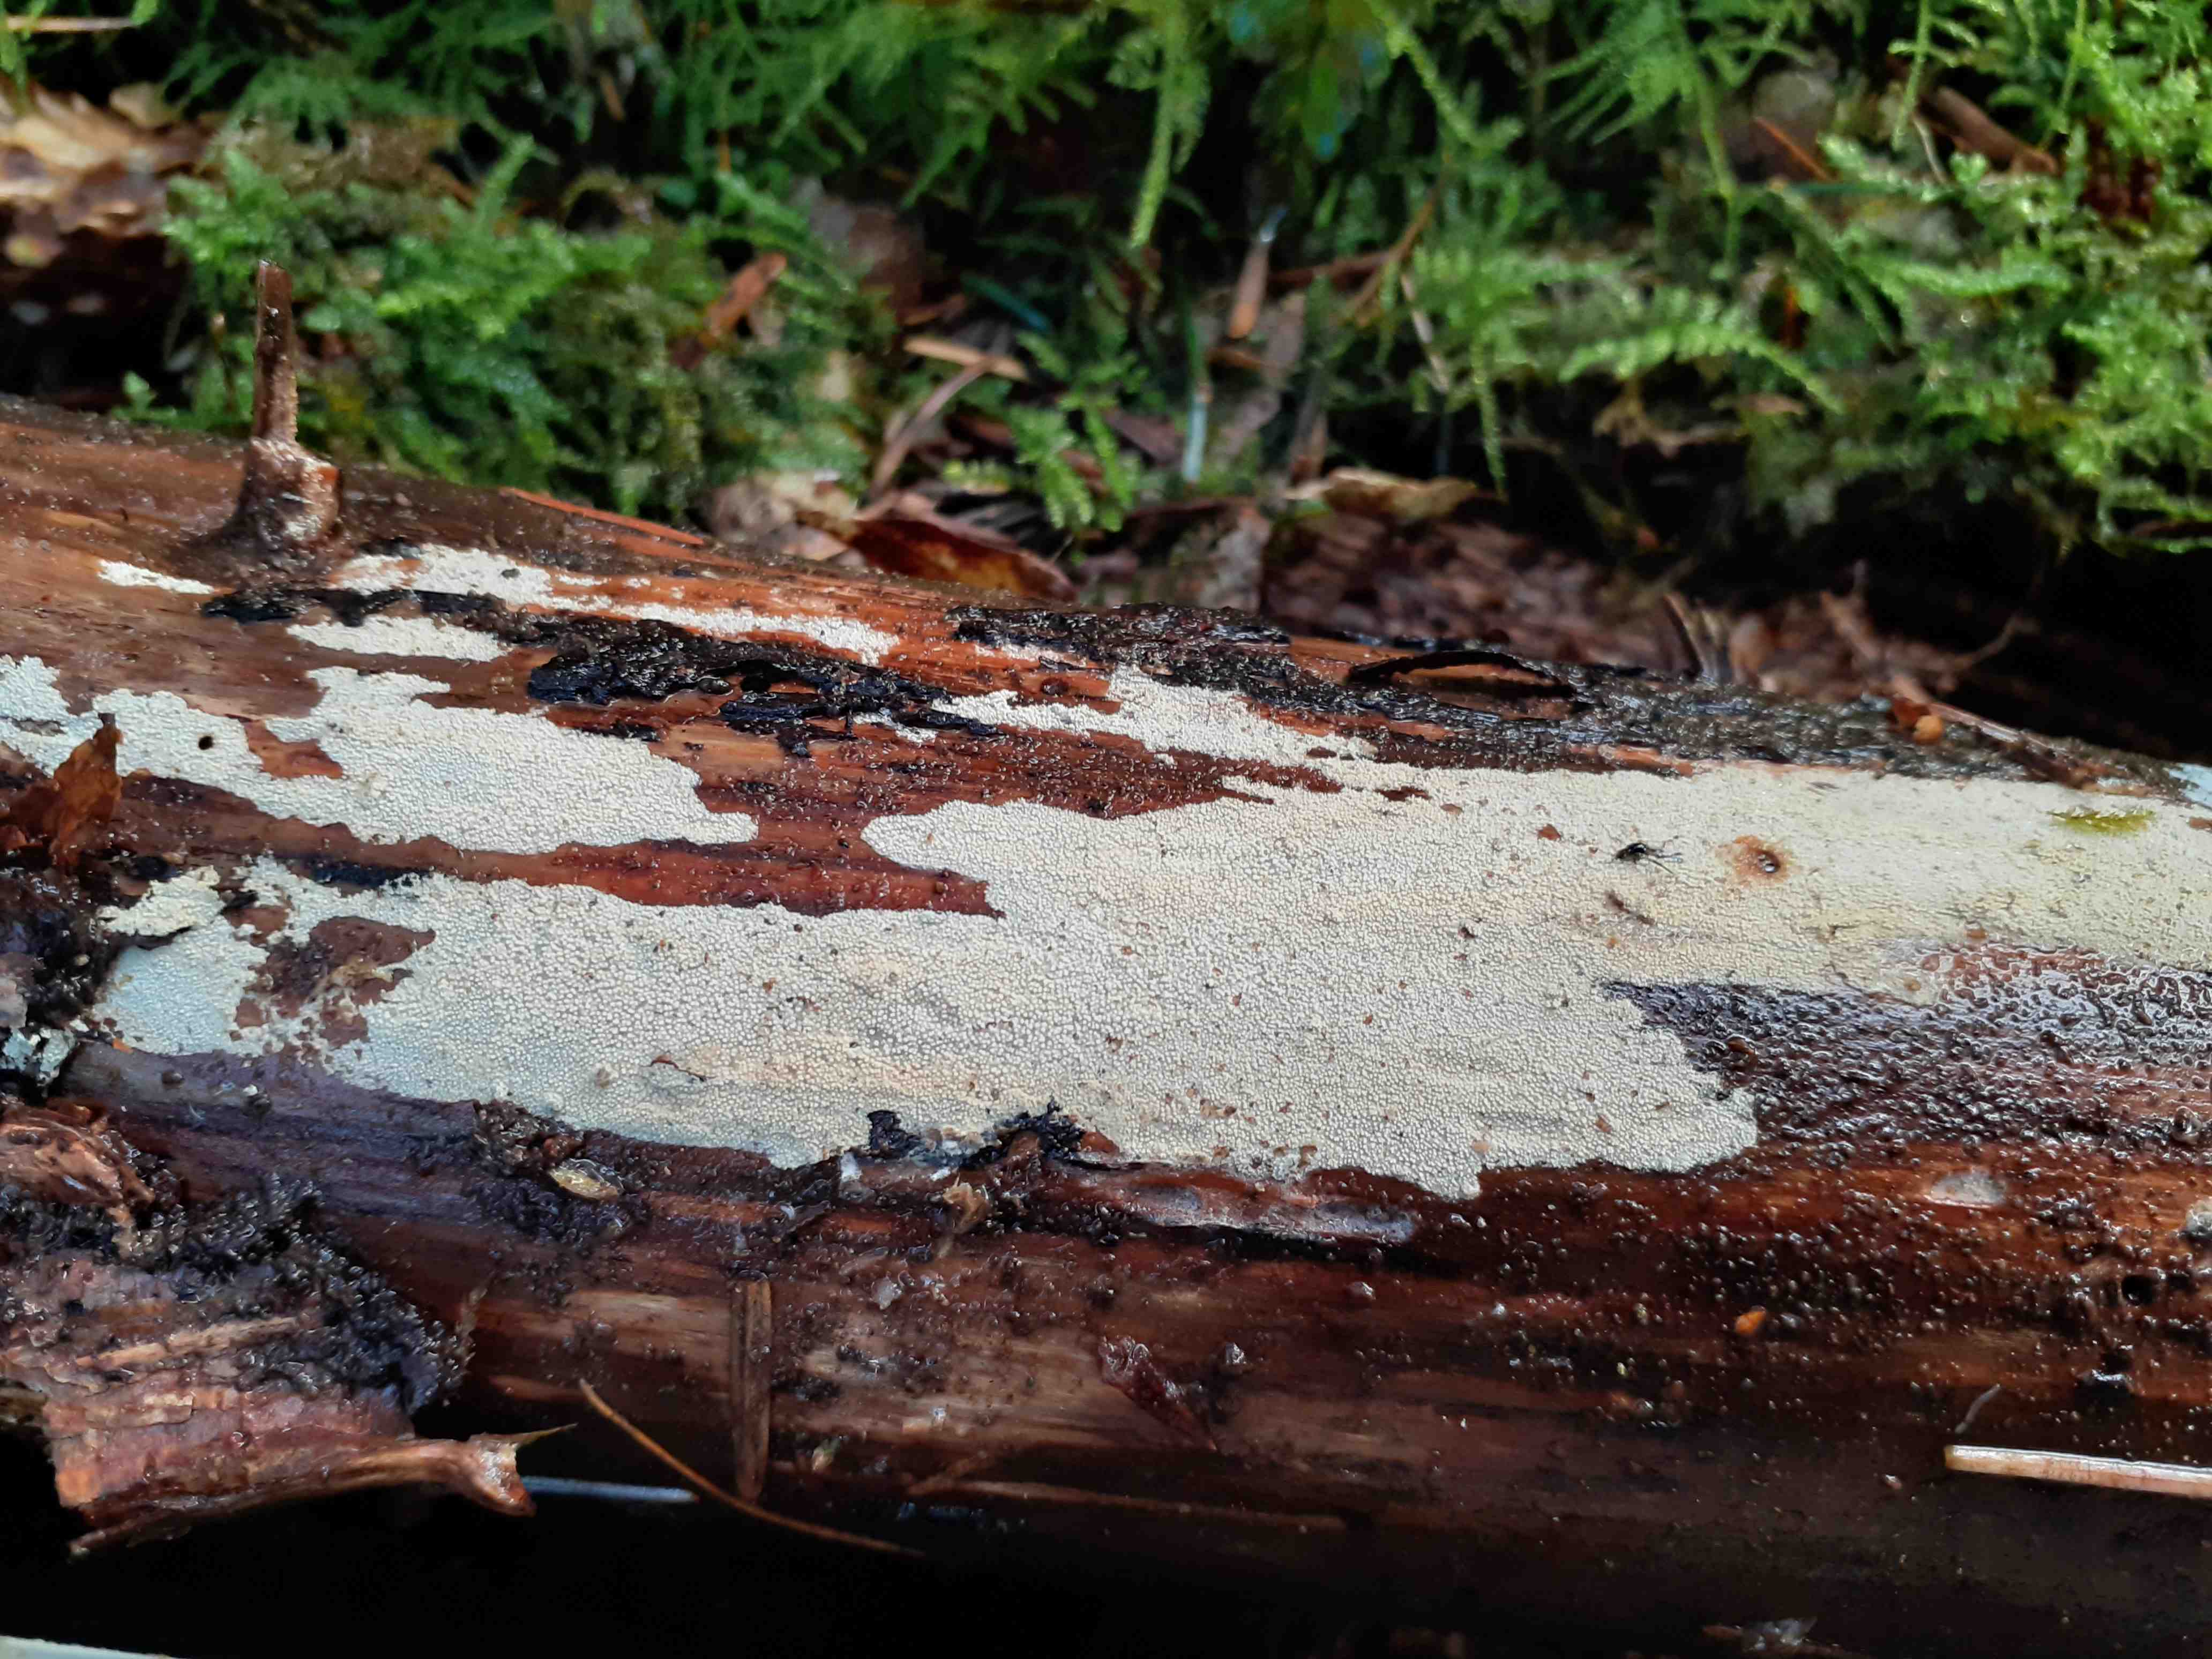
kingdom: Fungi
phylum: Basidiomycota
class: Agaricomycetes
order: Hymenochaetales
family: Rickenellaceae
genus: Resinicium
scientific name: Resinicium bicolor
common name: almindelig vokstand
